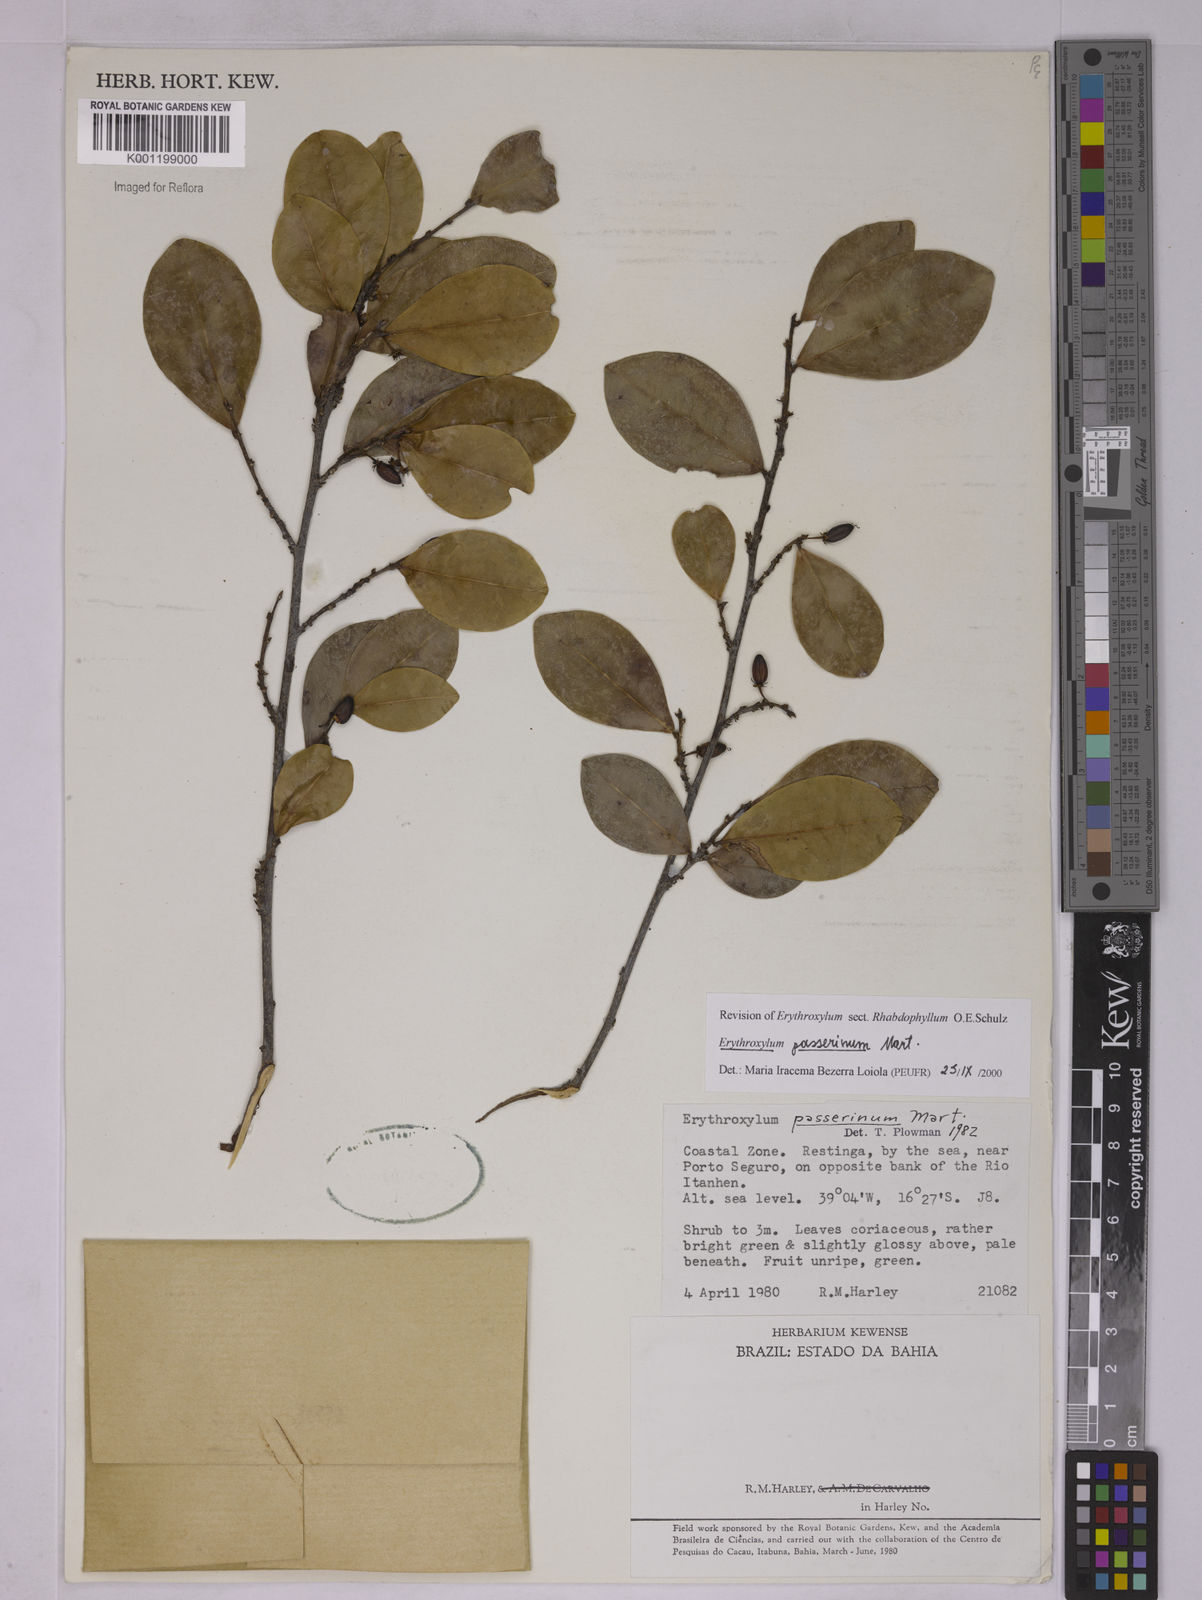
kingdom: Plantae
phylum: Tracheophyta
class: Magnoliopsida
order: Malpighiales
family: Erythroxylaceae
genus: Erythroxylum
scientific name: Erythroxylum passerinum
